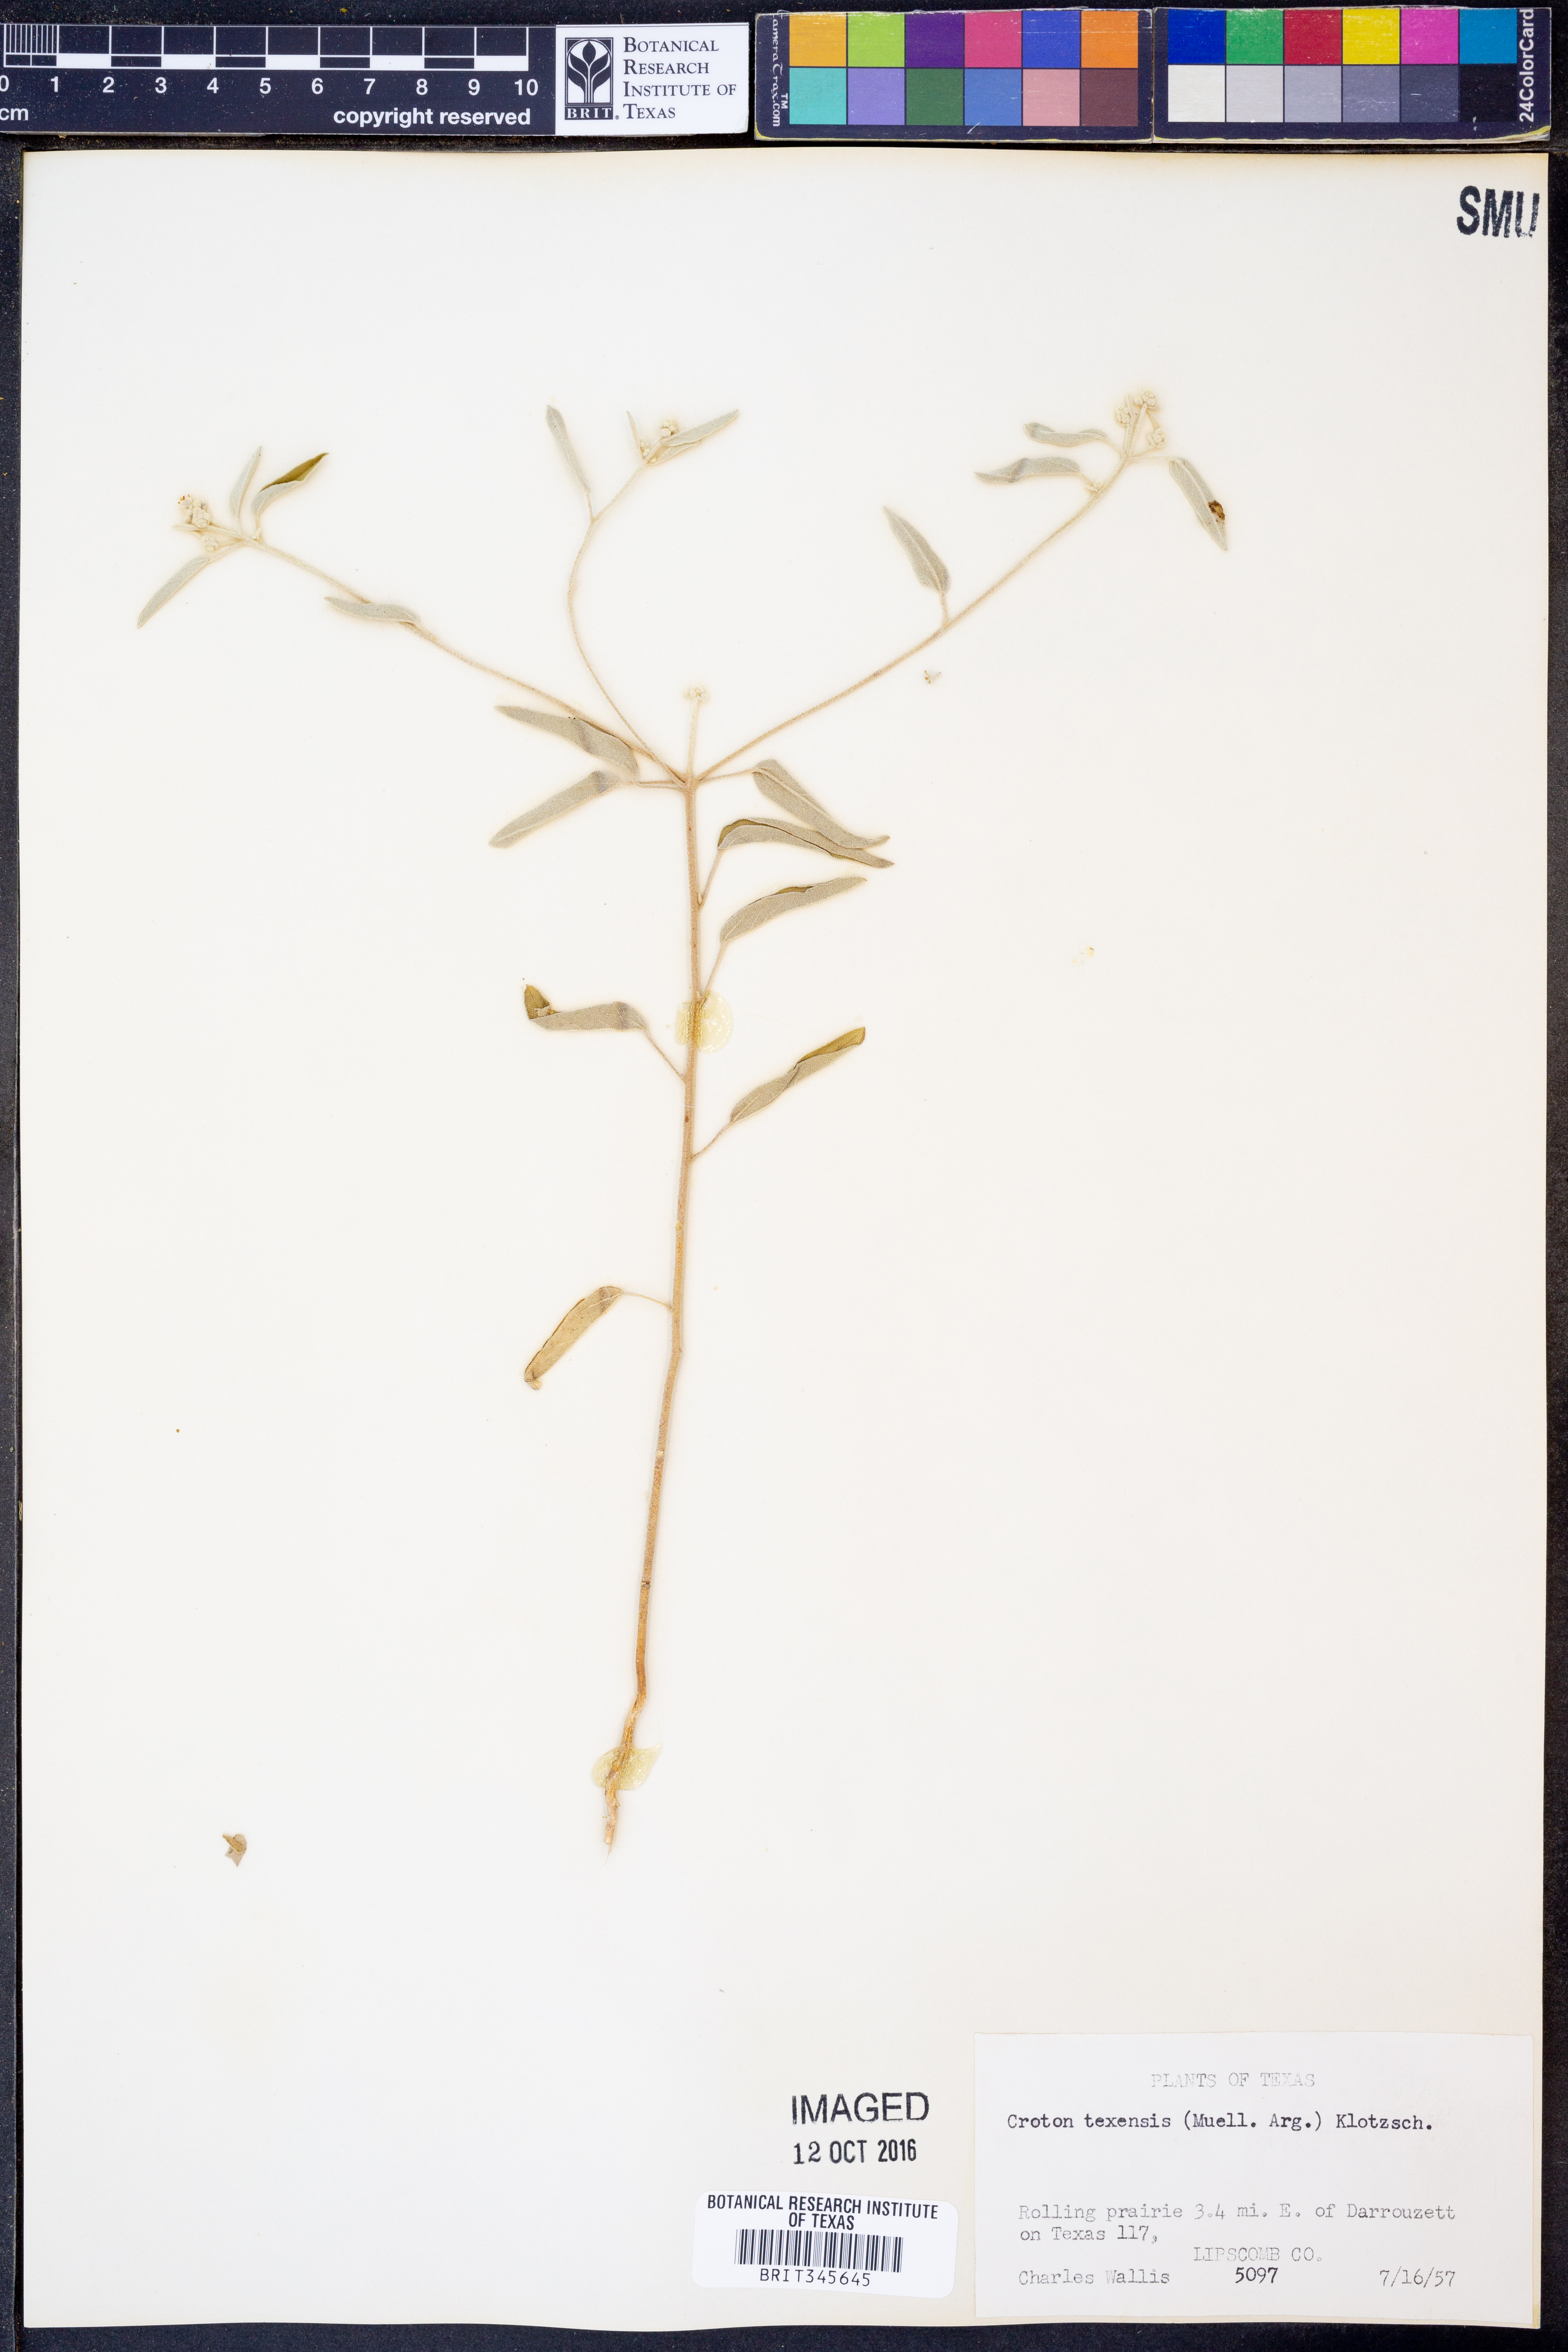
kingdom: Plantae
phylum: Tracheophyta
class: Magnoliopsida
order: Malpighiales
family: Euphorbiaceae
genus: Croton
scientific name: Croton texensis
